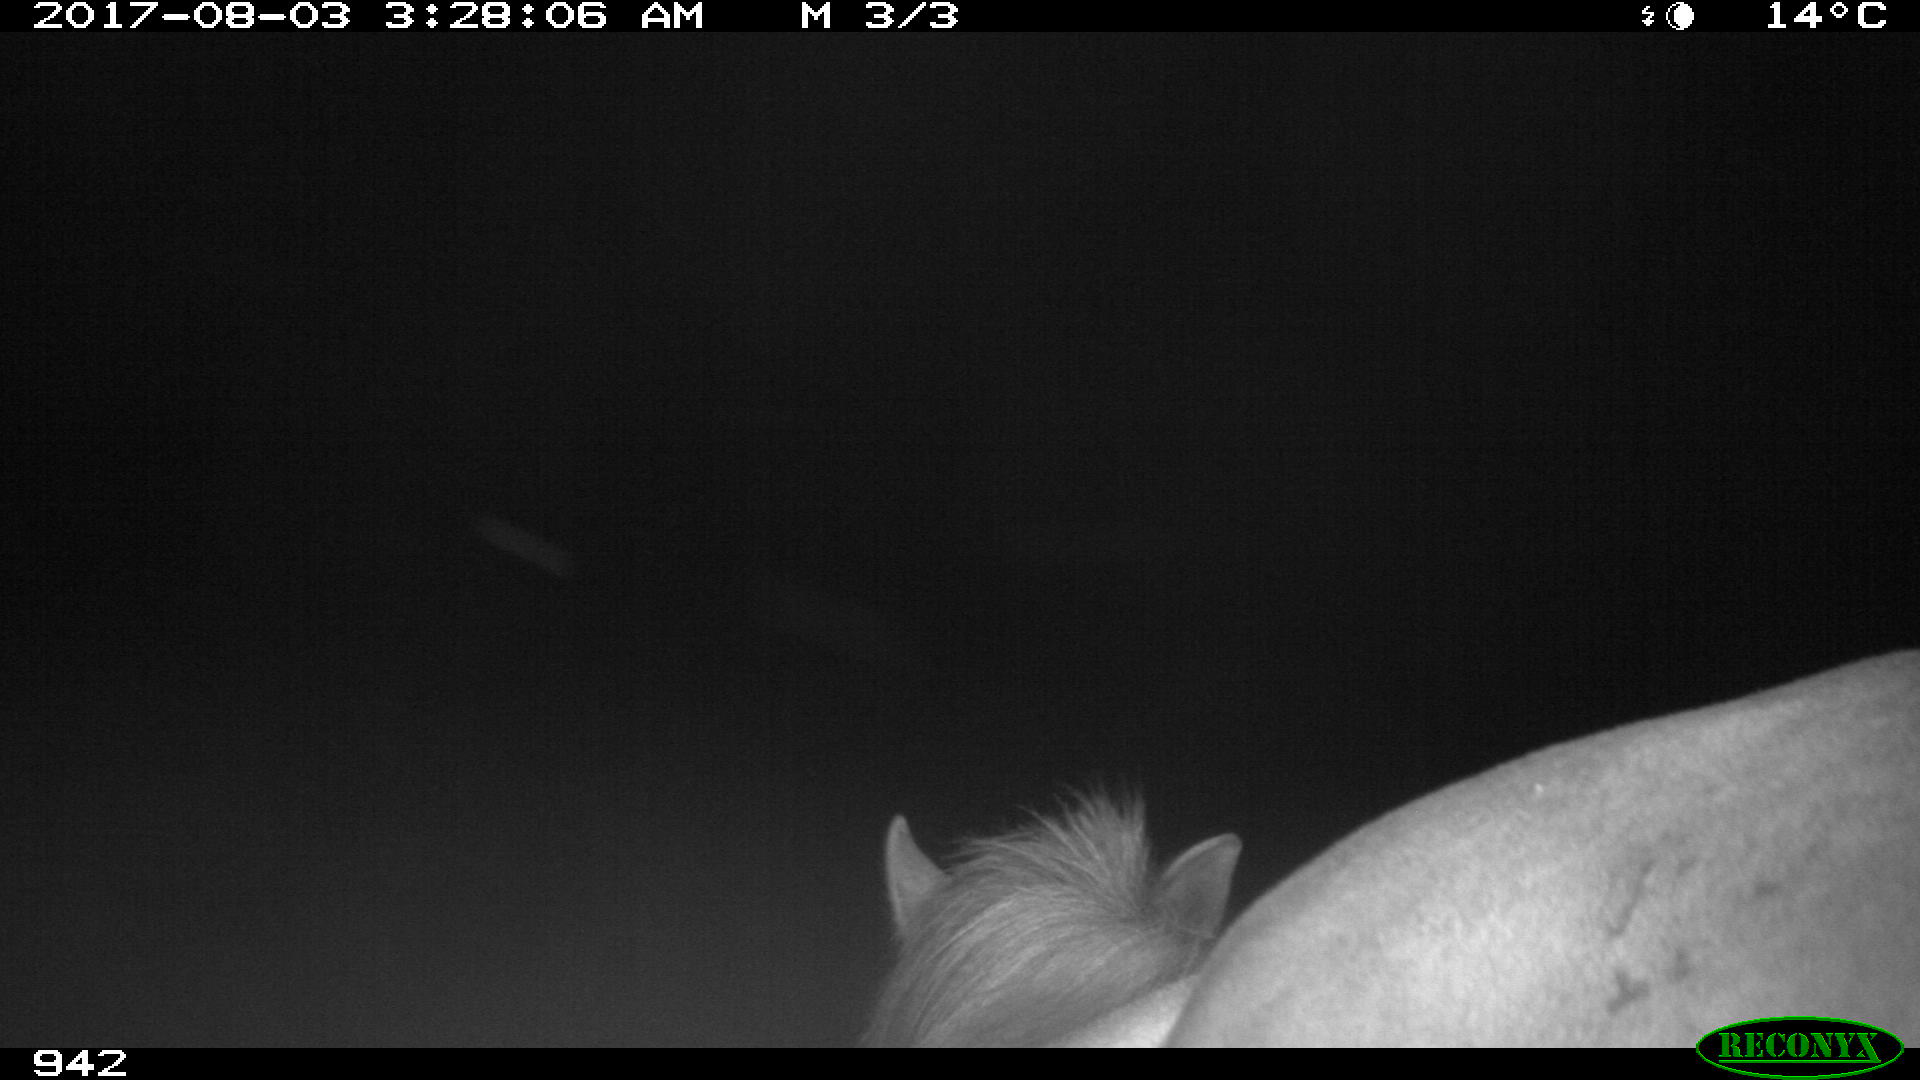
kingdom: Animalia
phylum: Chordata
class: Mammalia
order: Perissodactyla
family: Equidae
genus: Equus
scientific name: Equus caballus
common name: Horse
